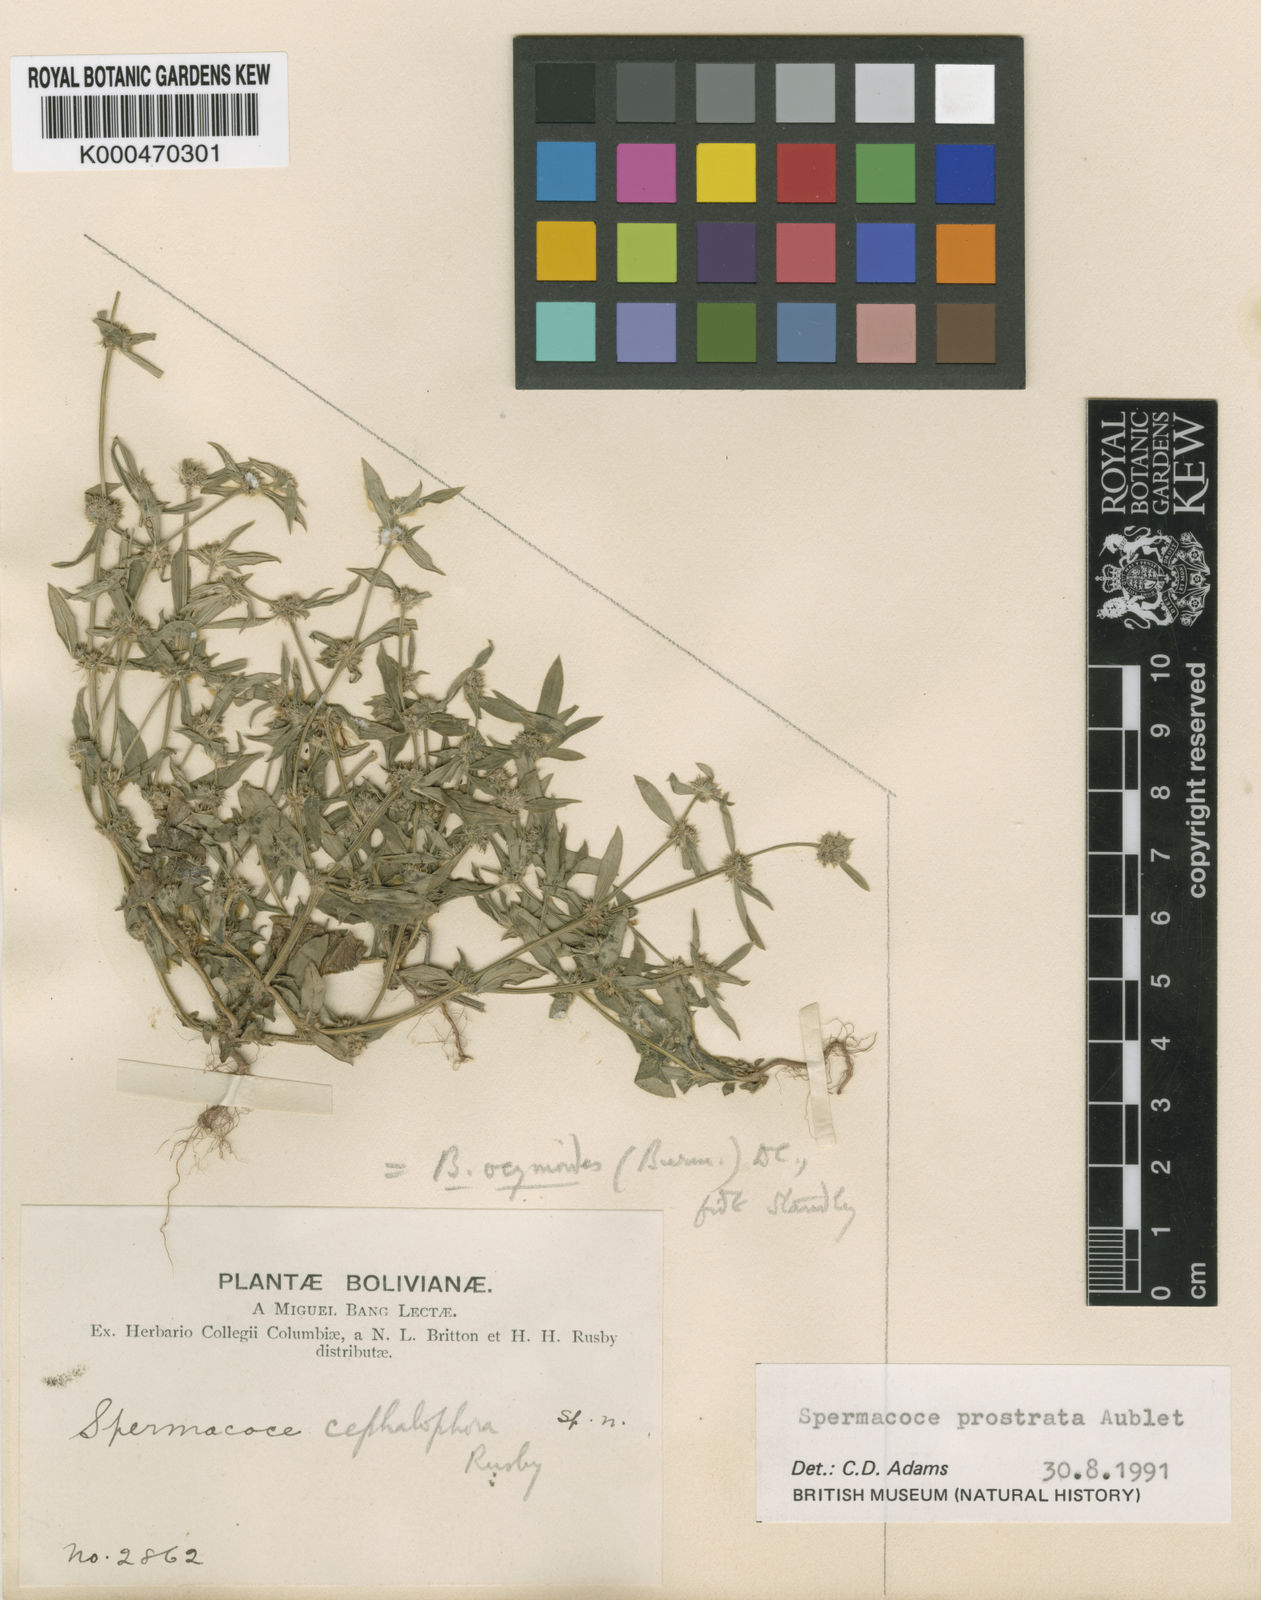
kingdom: Plantae
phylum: Tracheophyta
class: Magnoliopsida
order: Gentianales
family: Rubiaceae
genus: Spermacoce
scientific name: Spermacoce prostrata
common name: Prostrate false buttonweed
